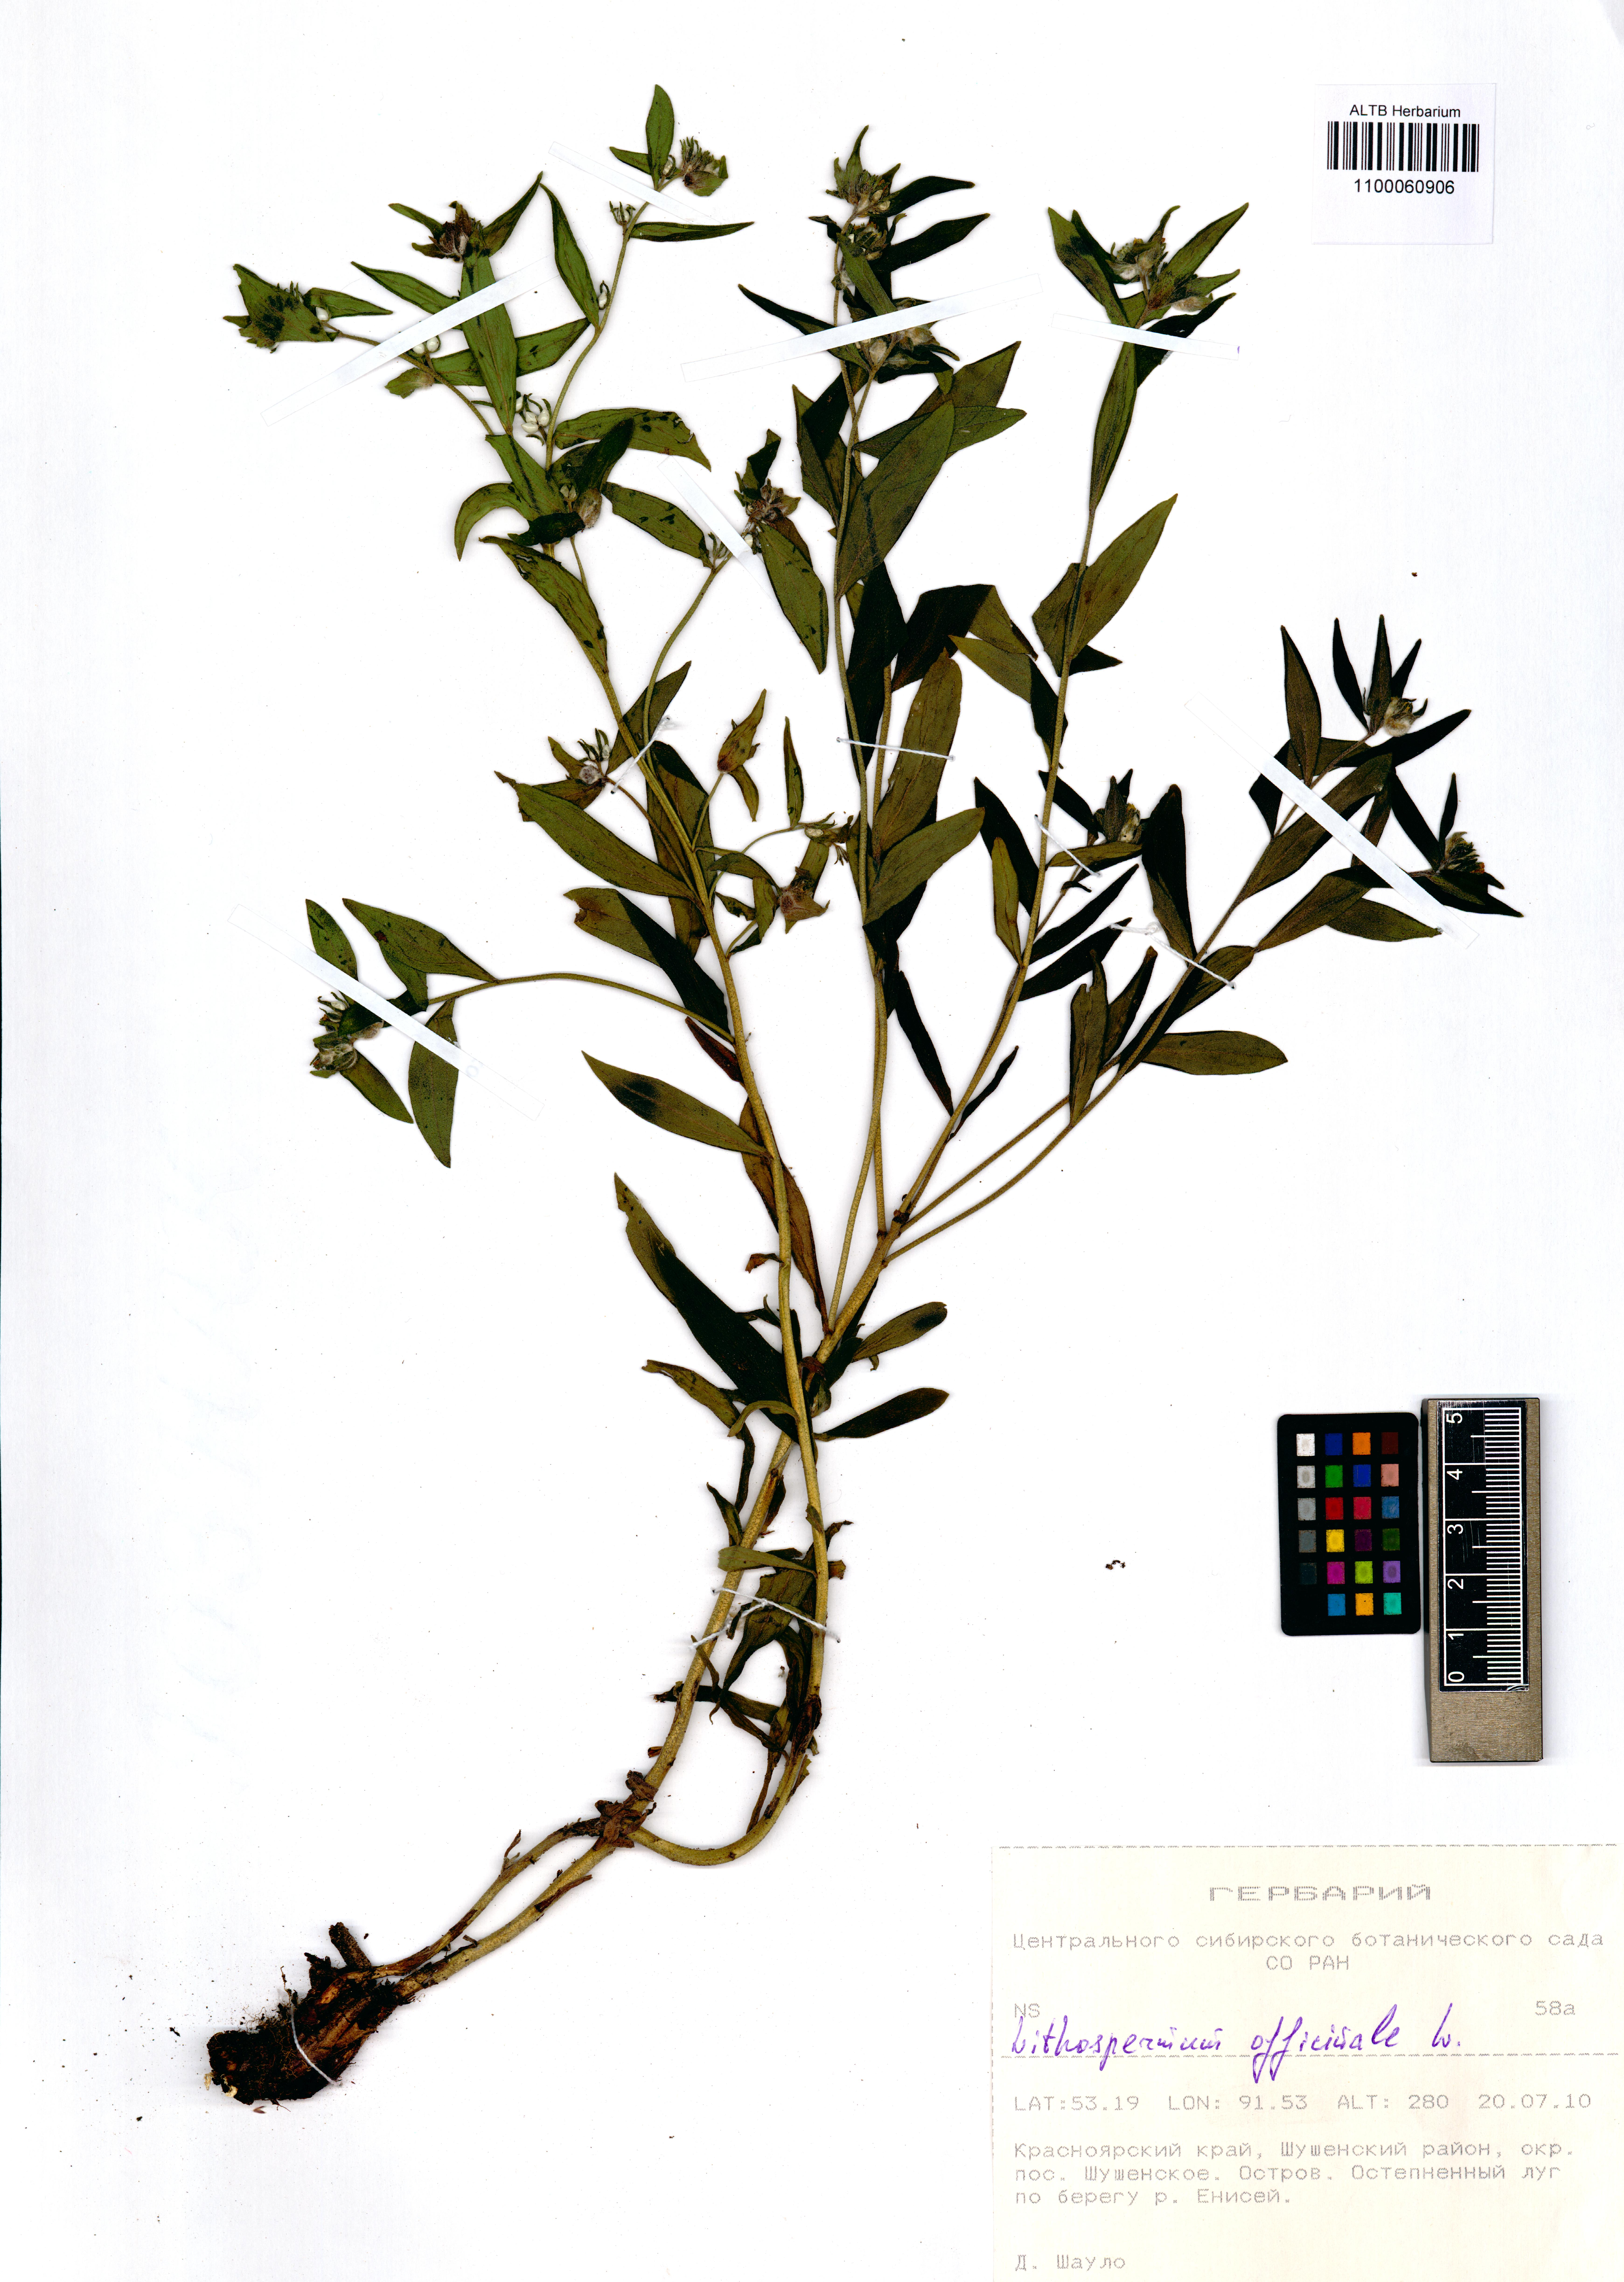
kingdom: Plantae
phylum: Tracheophyta
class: Magnoliopsida
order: Boraginales
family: Boraginaceae
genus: Lithospermum
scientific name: Lithospermum officinale
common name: Common gromwell
